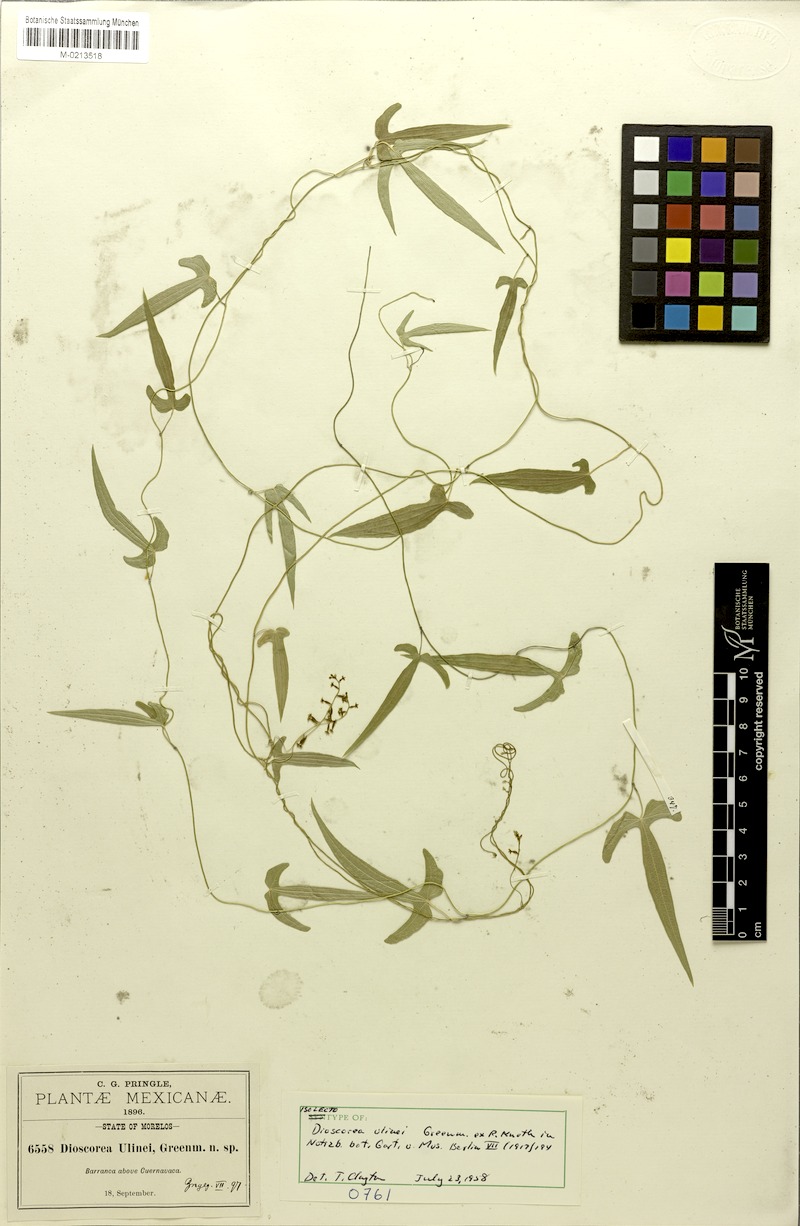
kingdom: Plantae
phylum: Tracheophyta
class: Liliopsida
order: Dioscoreales
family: Dioscoreaceae
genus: Dioscorea
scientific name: Dioscorea ulinei
